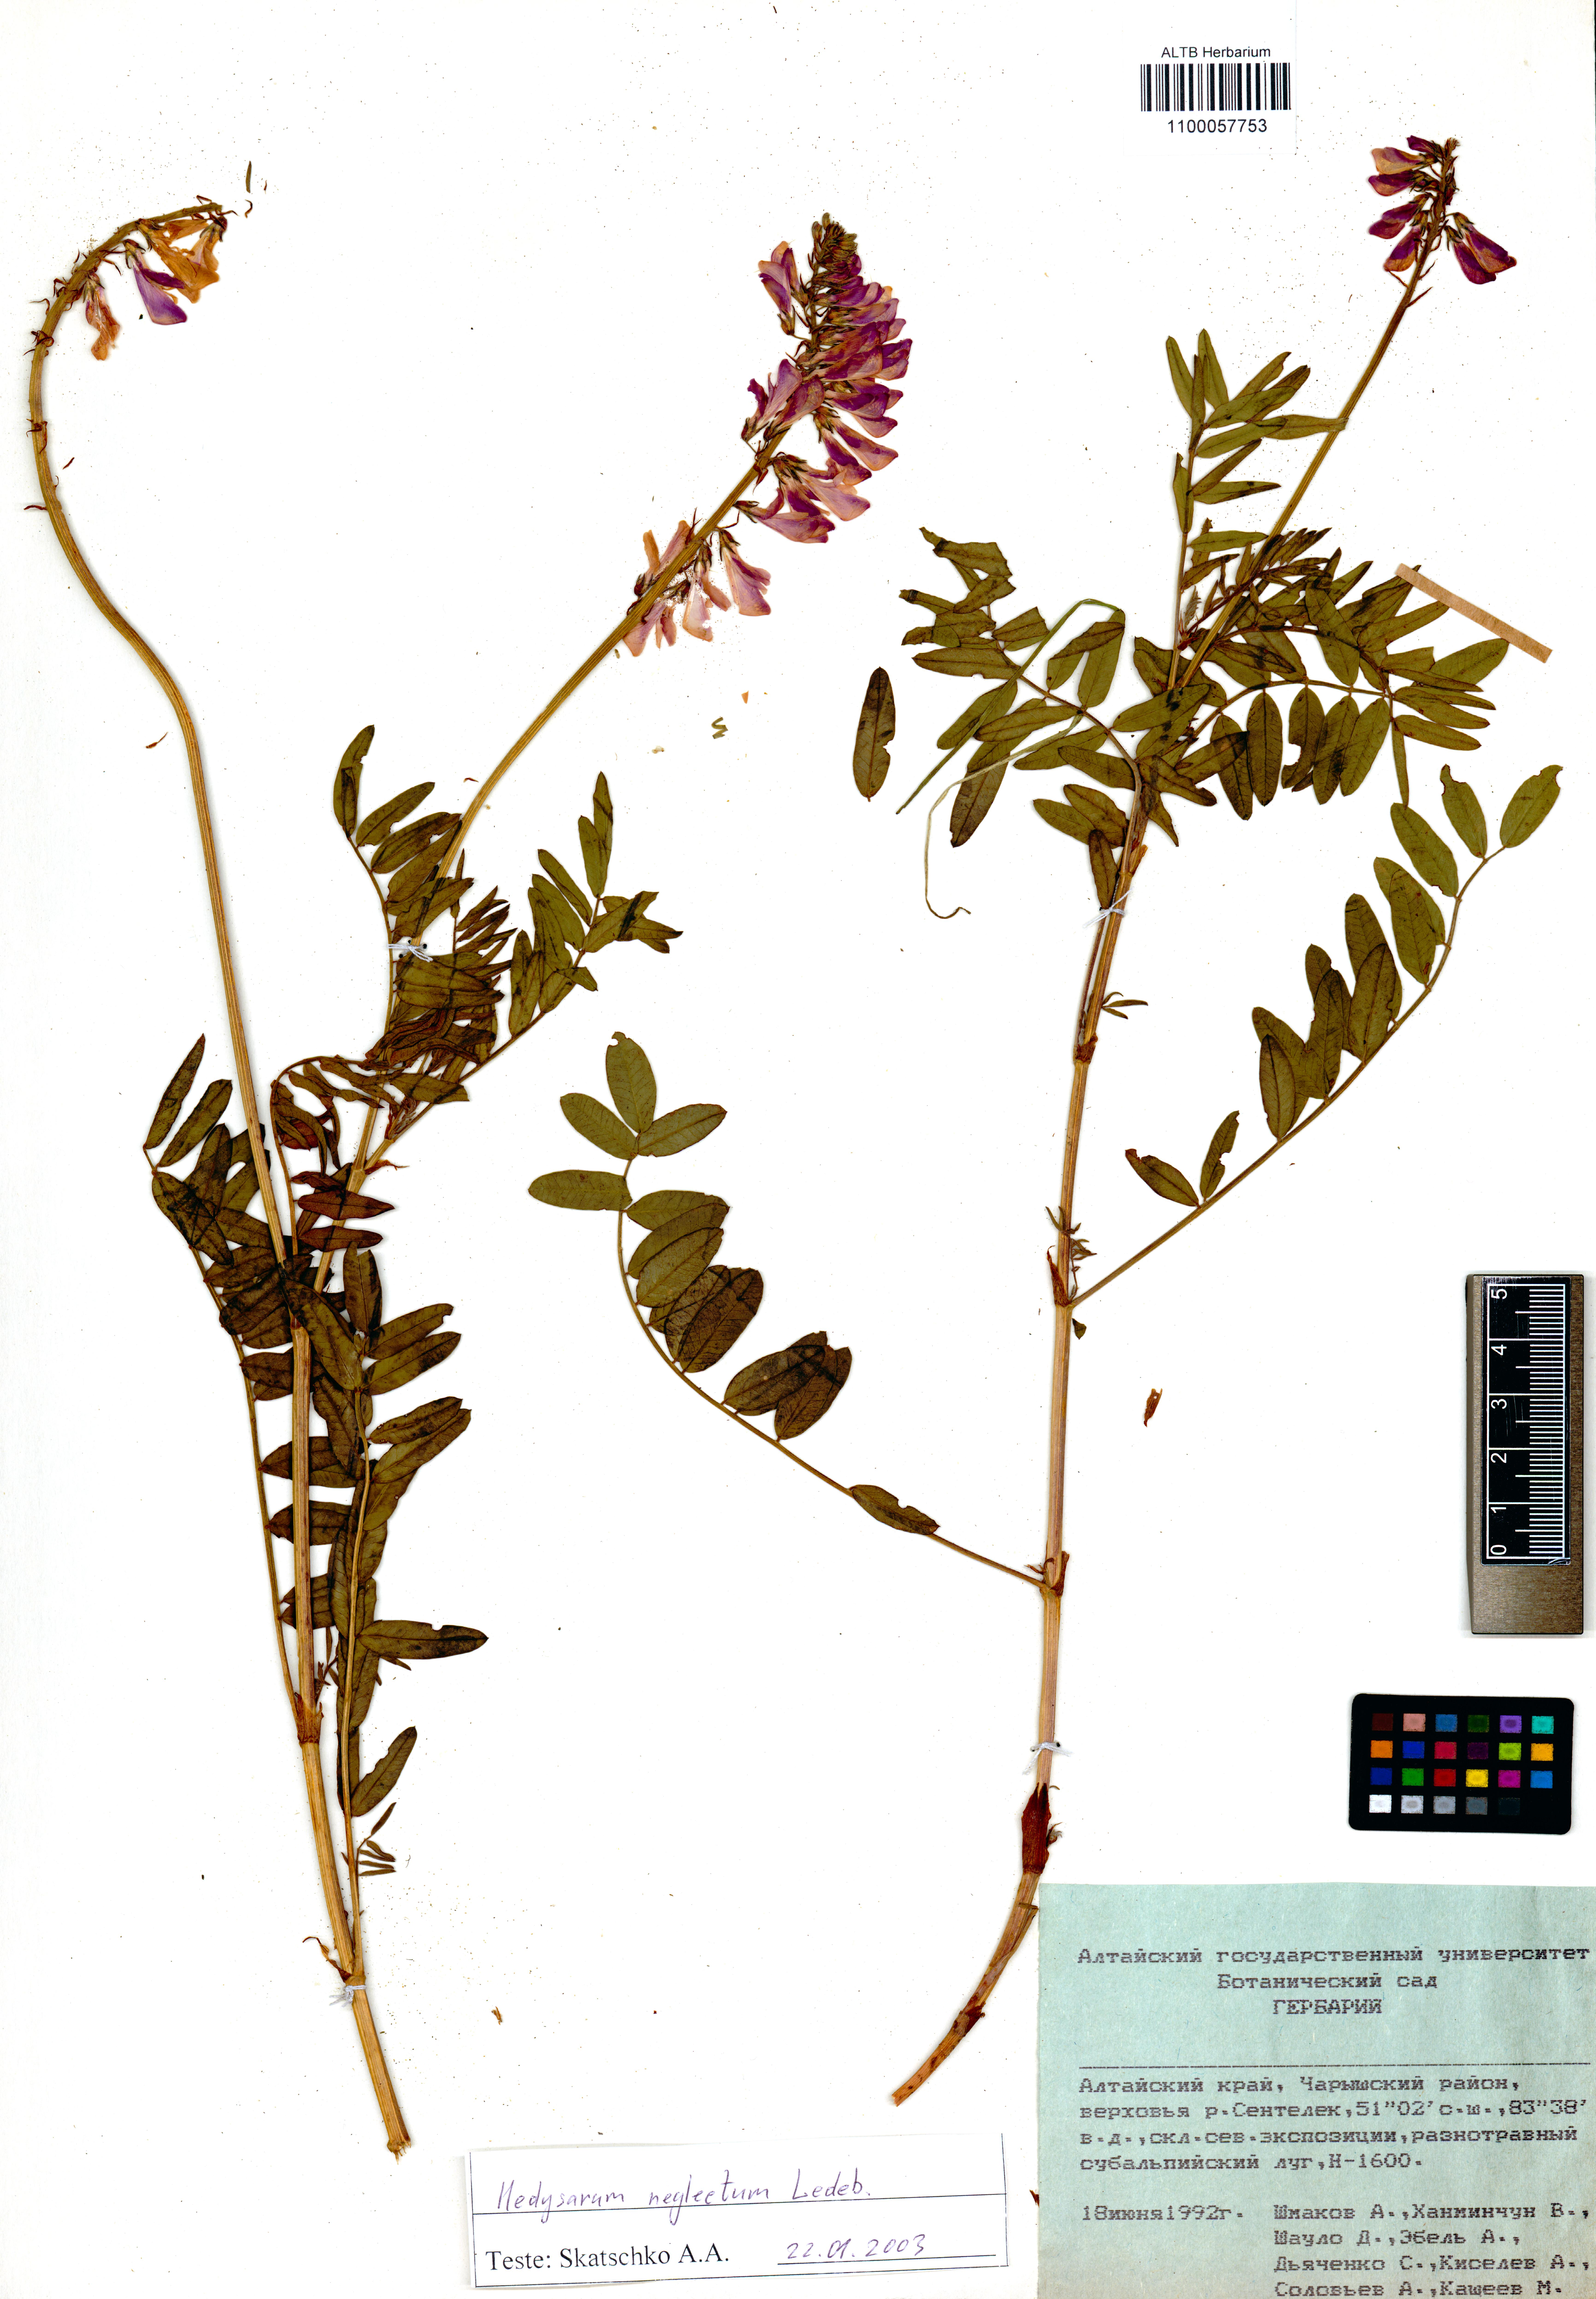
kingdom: Plantae
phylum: Tracheophyta
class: Magnoliopsida
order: Fabales
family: Fabaceae
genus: Hedysarum
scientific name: Hedysarum neglectum
